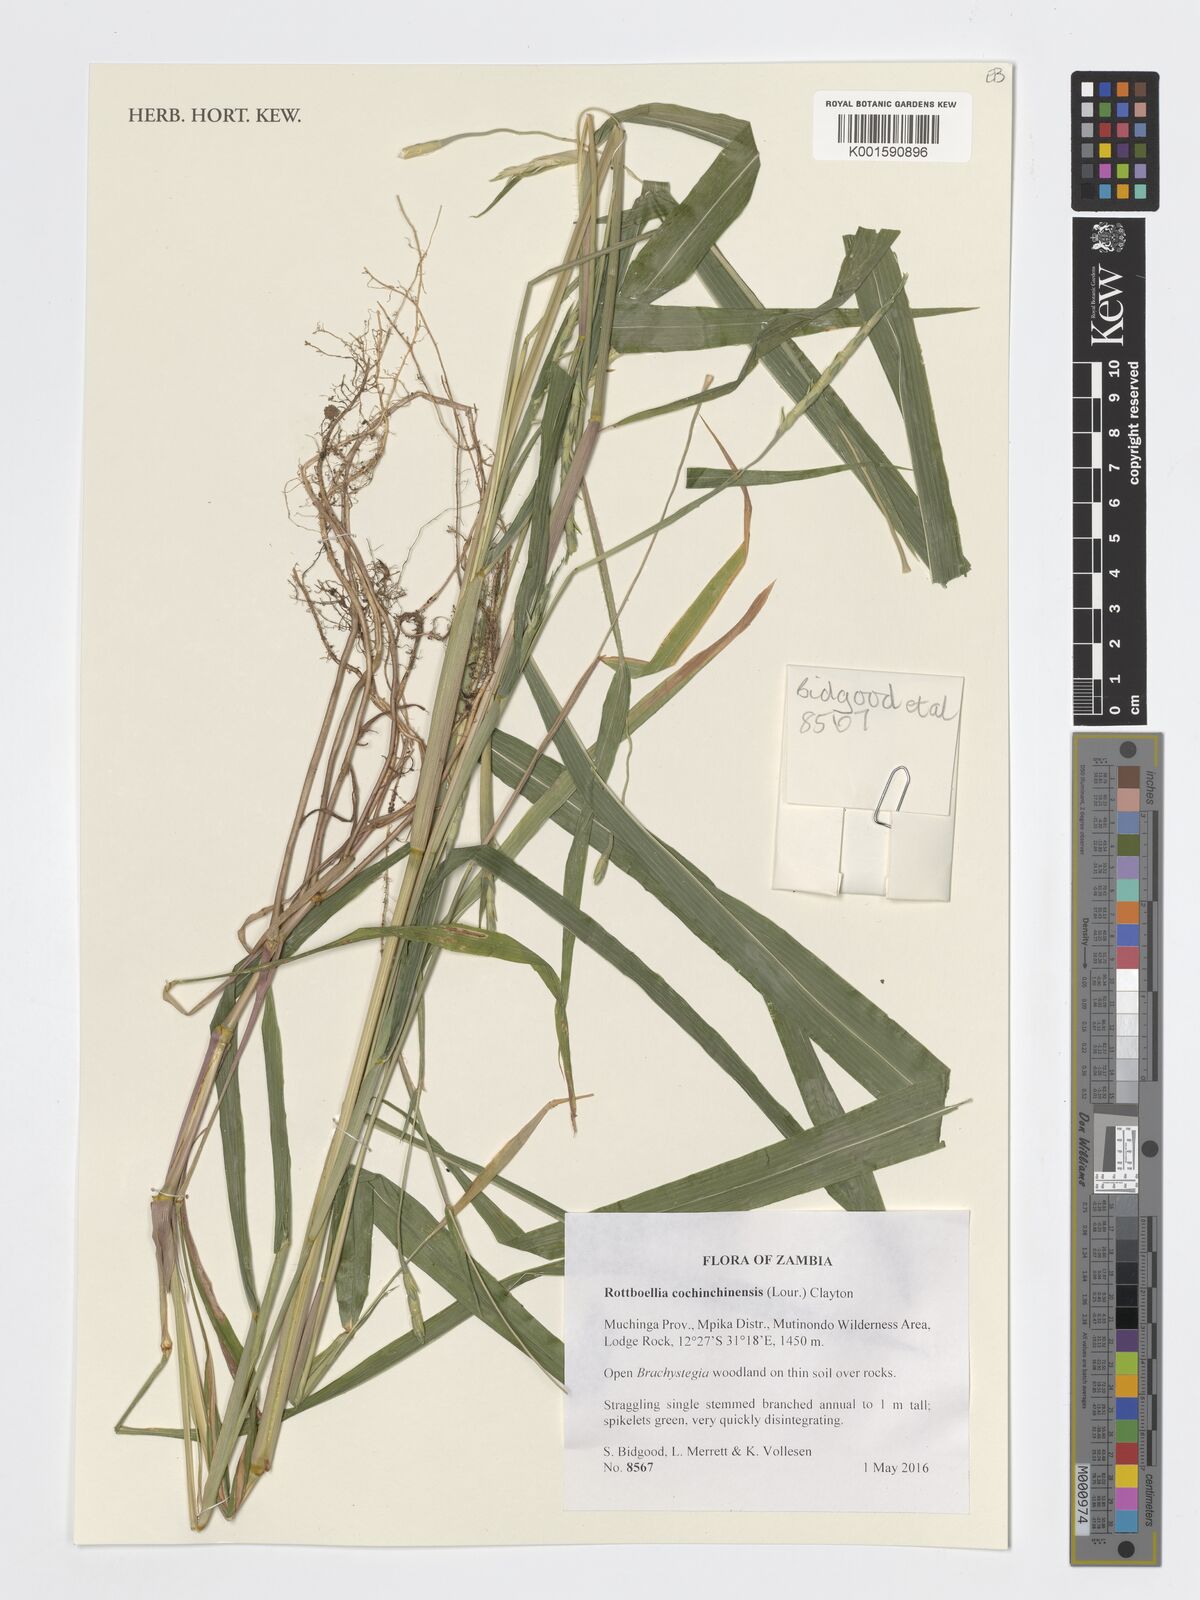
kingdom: Plantae
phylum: Tracheophyta
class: Liliopsida
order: Poales
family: Poaceae
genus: Rottboellia
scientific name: Rottboellia cochinchinensis
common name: Itchgrass
